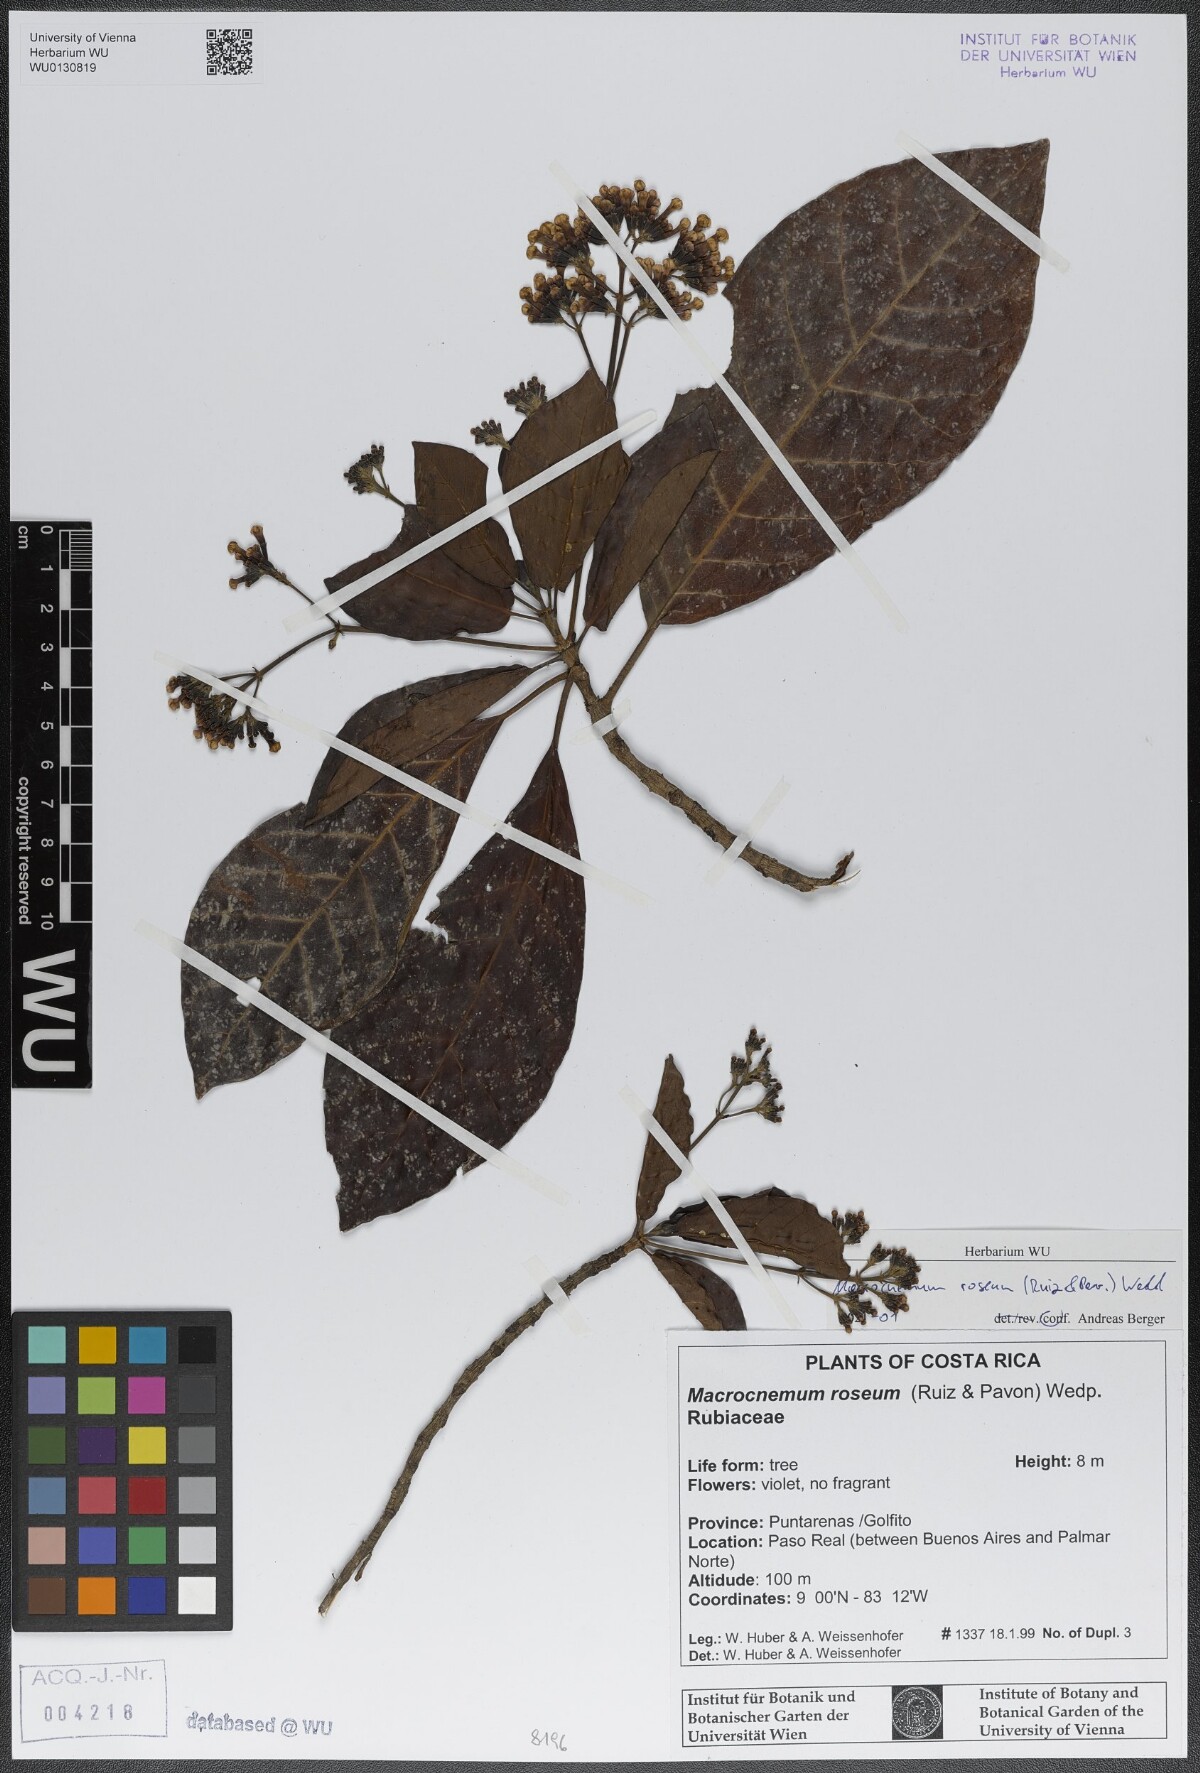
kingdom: Plantae
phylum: Tracheophyta
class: Magnoliopsida
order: Gentianales
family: Rubiaceae
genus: Macrocnemum
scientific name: Macrocnemum roseum
